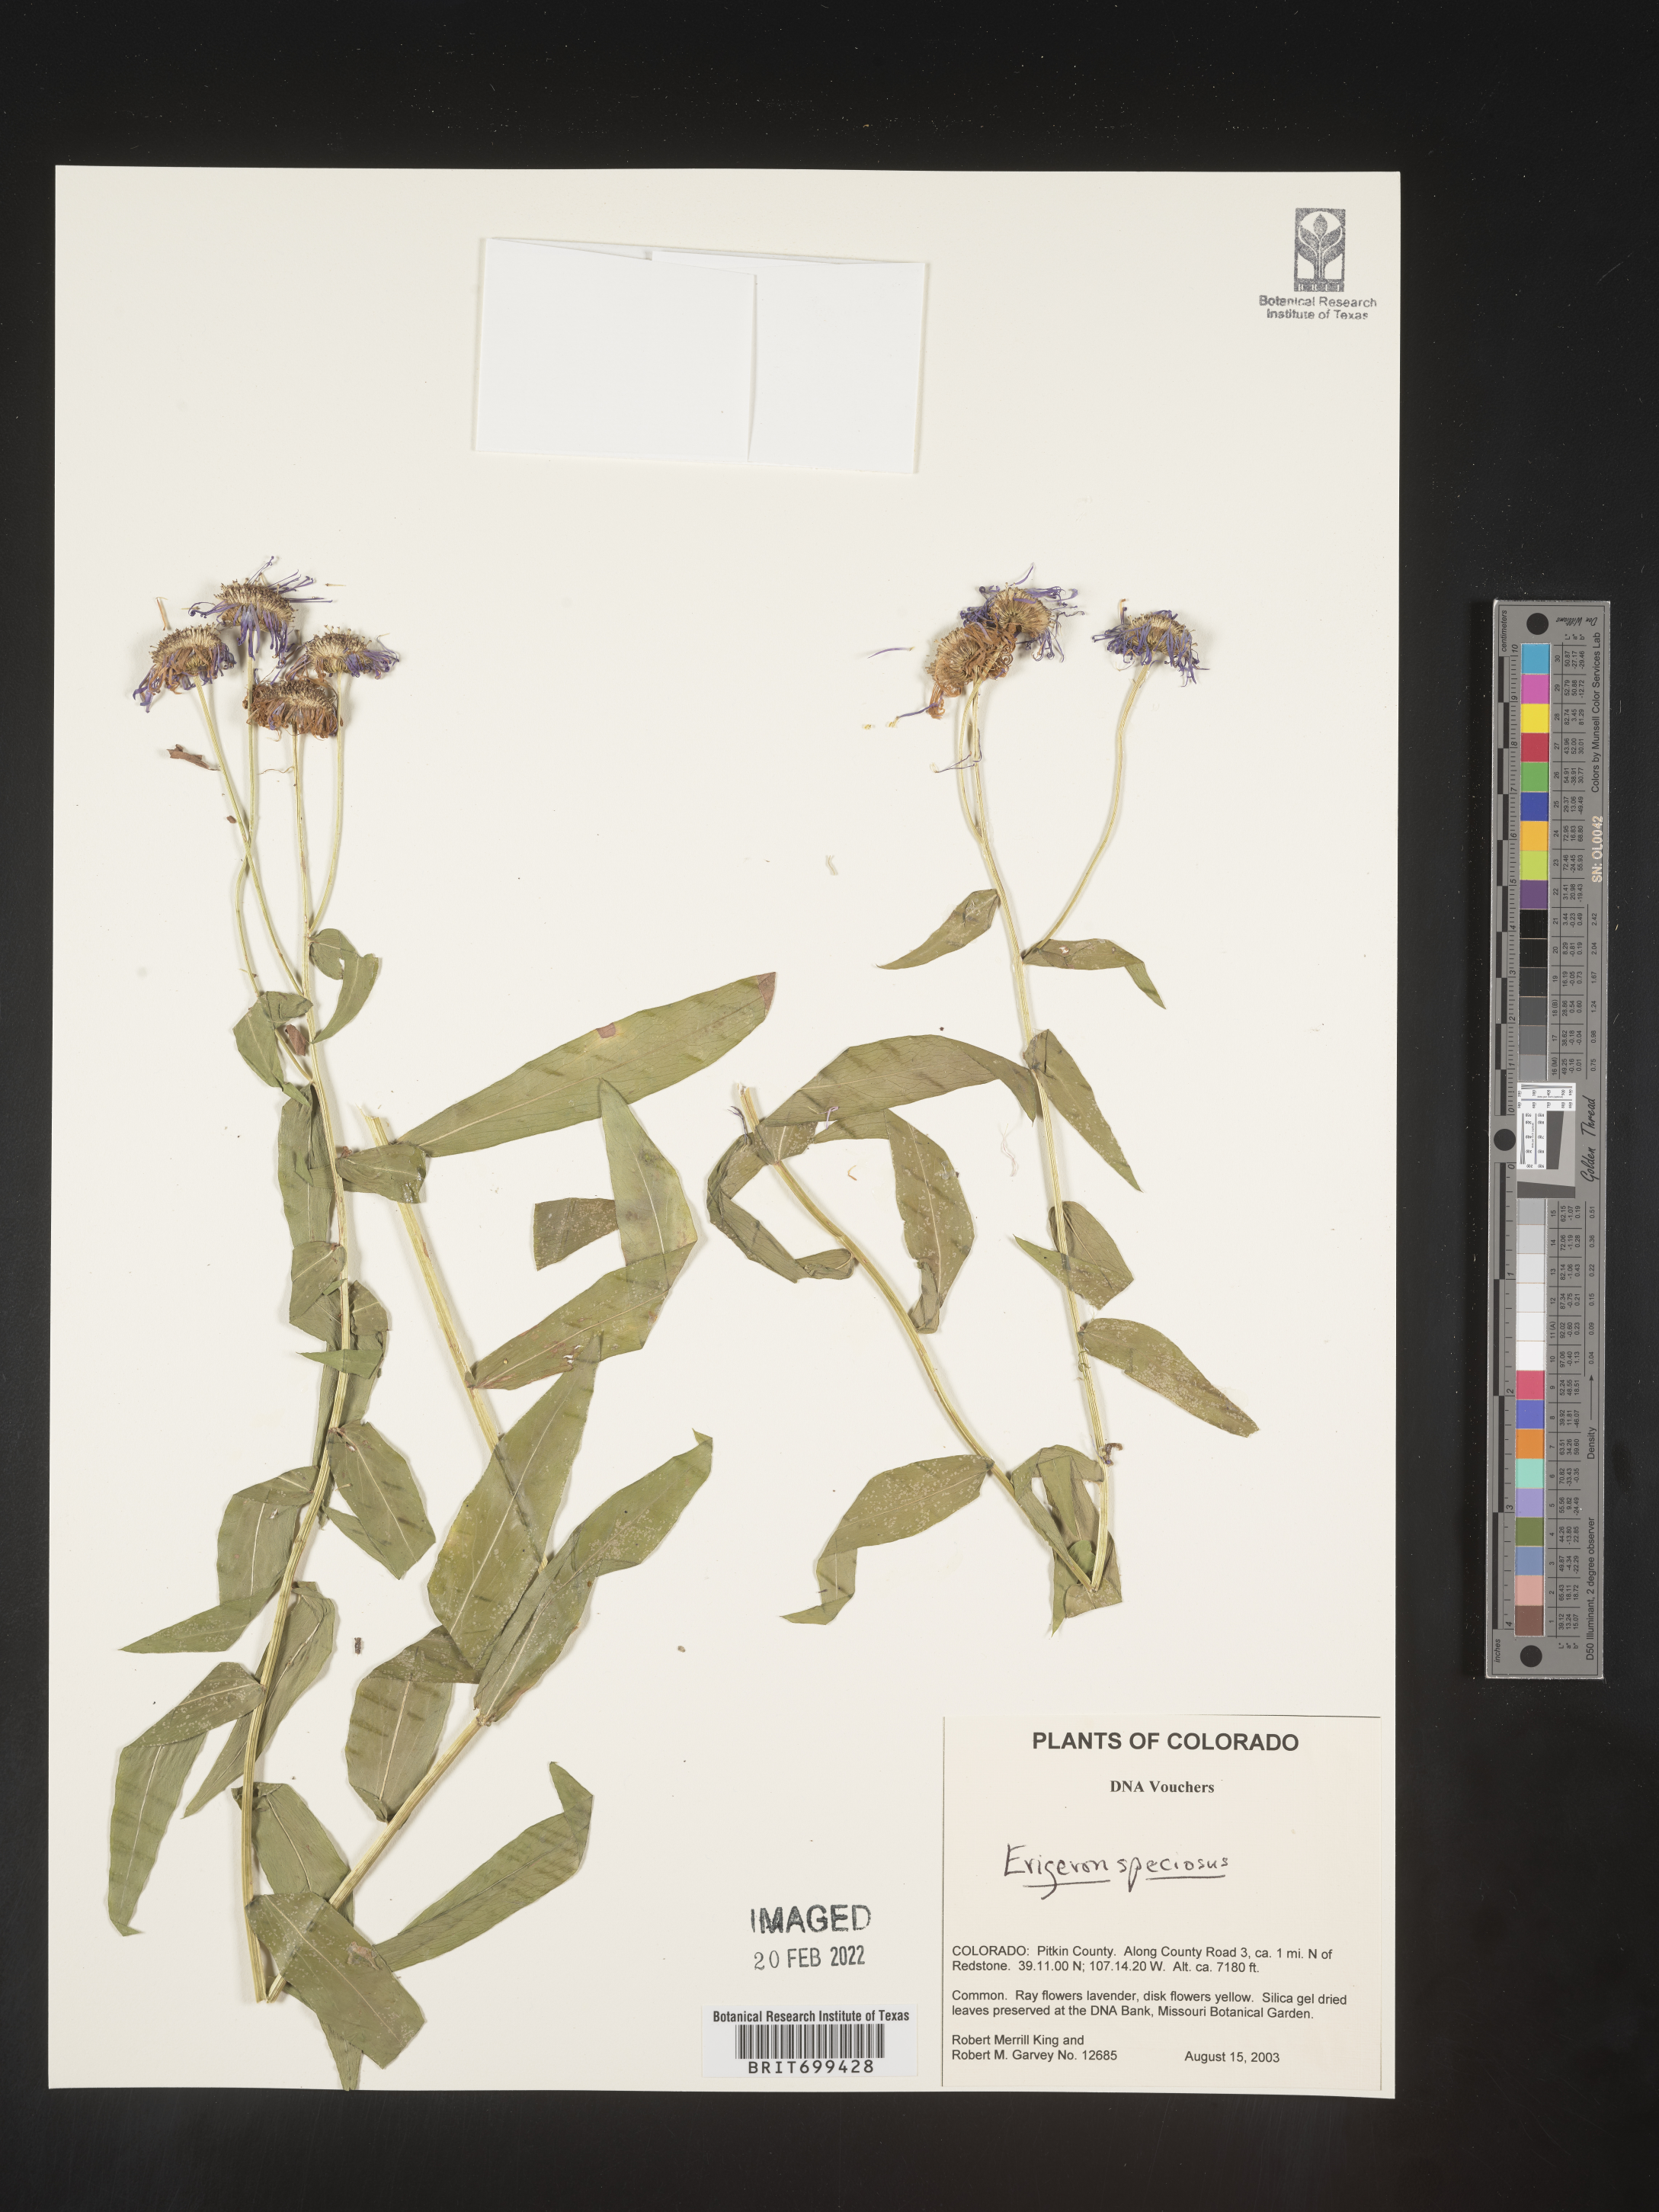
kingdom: Plantae
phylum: Tracheophyta
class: Magnoliopsida
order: Asterales
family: Asteraceae
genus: Erigeron
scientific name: Erigeron speciosus
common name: Aspen fleabane
